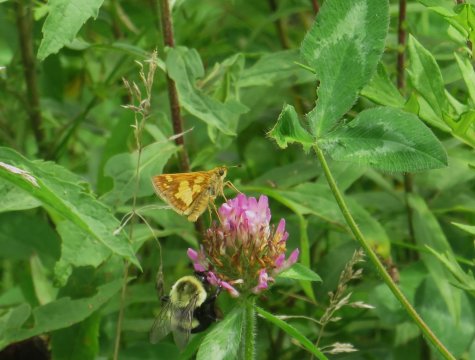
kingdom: Animalia
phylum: Arthropoda
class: Insecta
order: Lepidoptera
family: Hesperiidae
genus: Polites
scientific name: Polites coras
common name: Peck's Skipper
